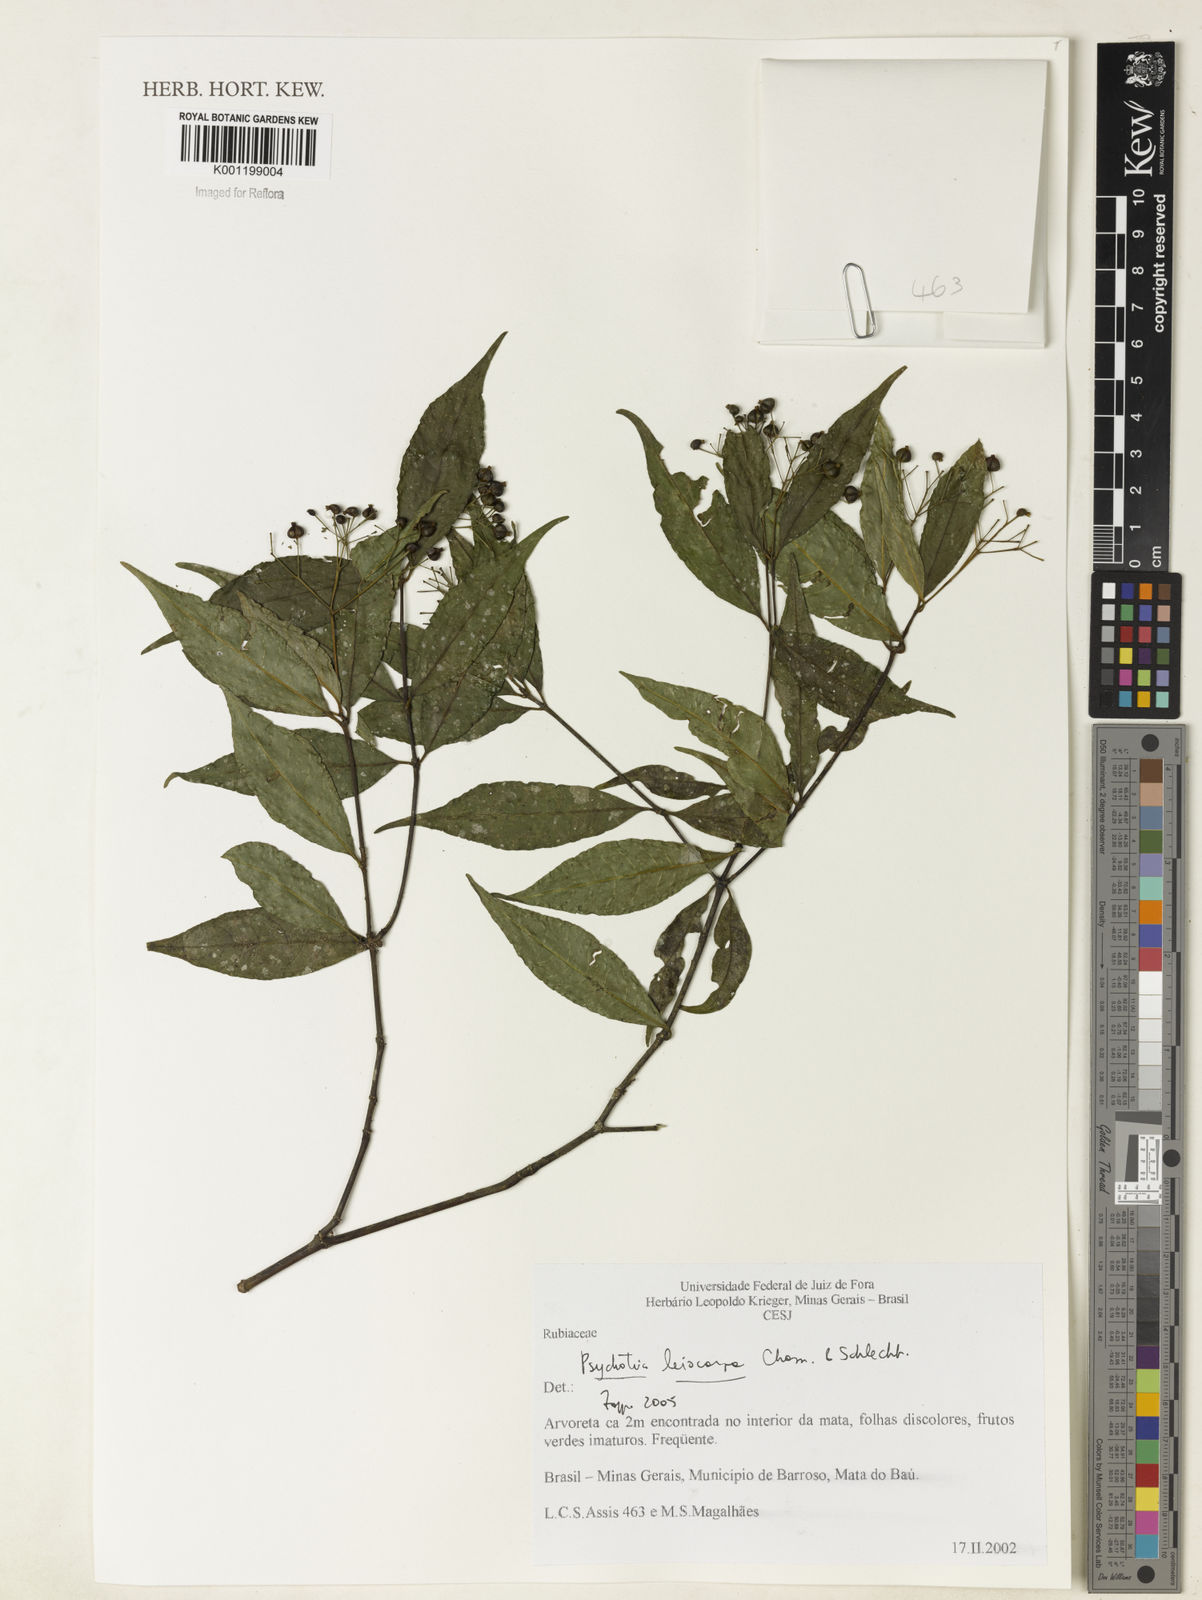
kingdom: Plantae
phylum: Tracheophyta
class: Magnoliopsida
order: Gentianales
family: Rubiaceae
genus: Psychotria
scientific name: Psychotria leiocarpa
